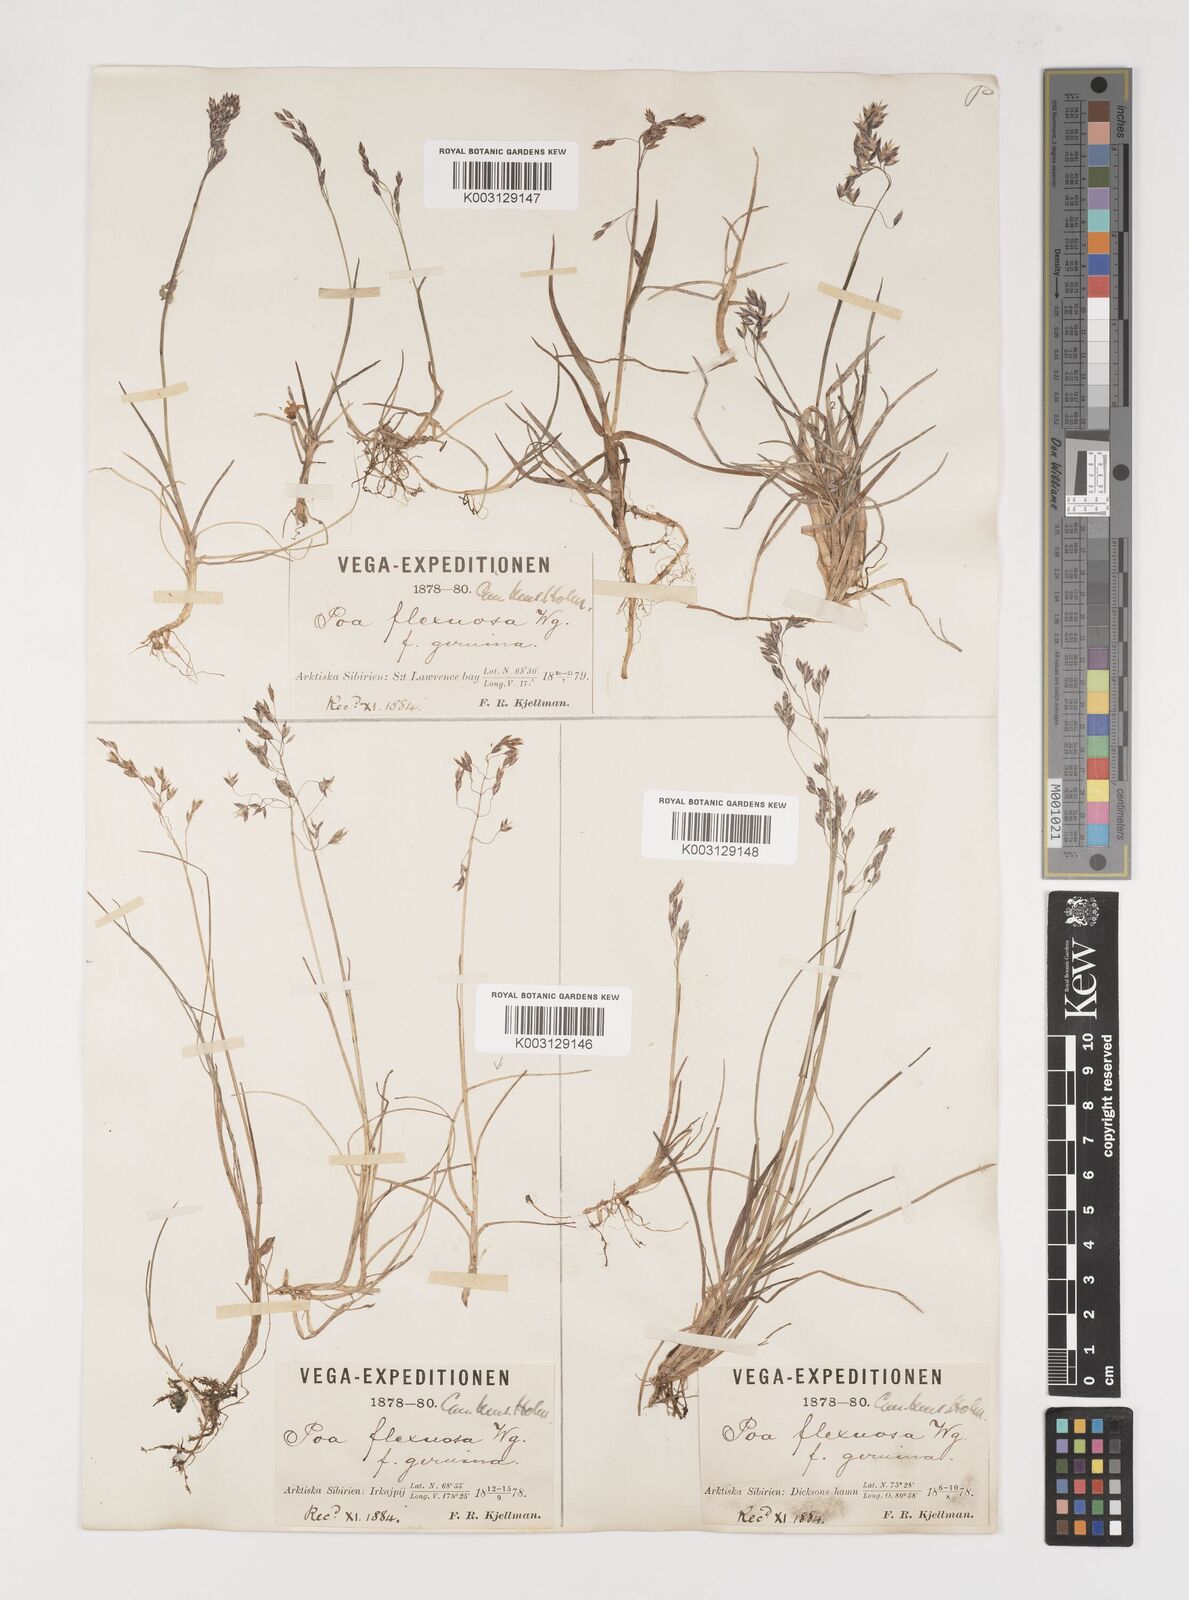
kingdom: Plantae
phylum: Tracheophyta
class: Liliopsida
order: Poales
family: Poaceae
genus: Poa
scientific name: Poa arctica
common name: Arctic bluegrass
